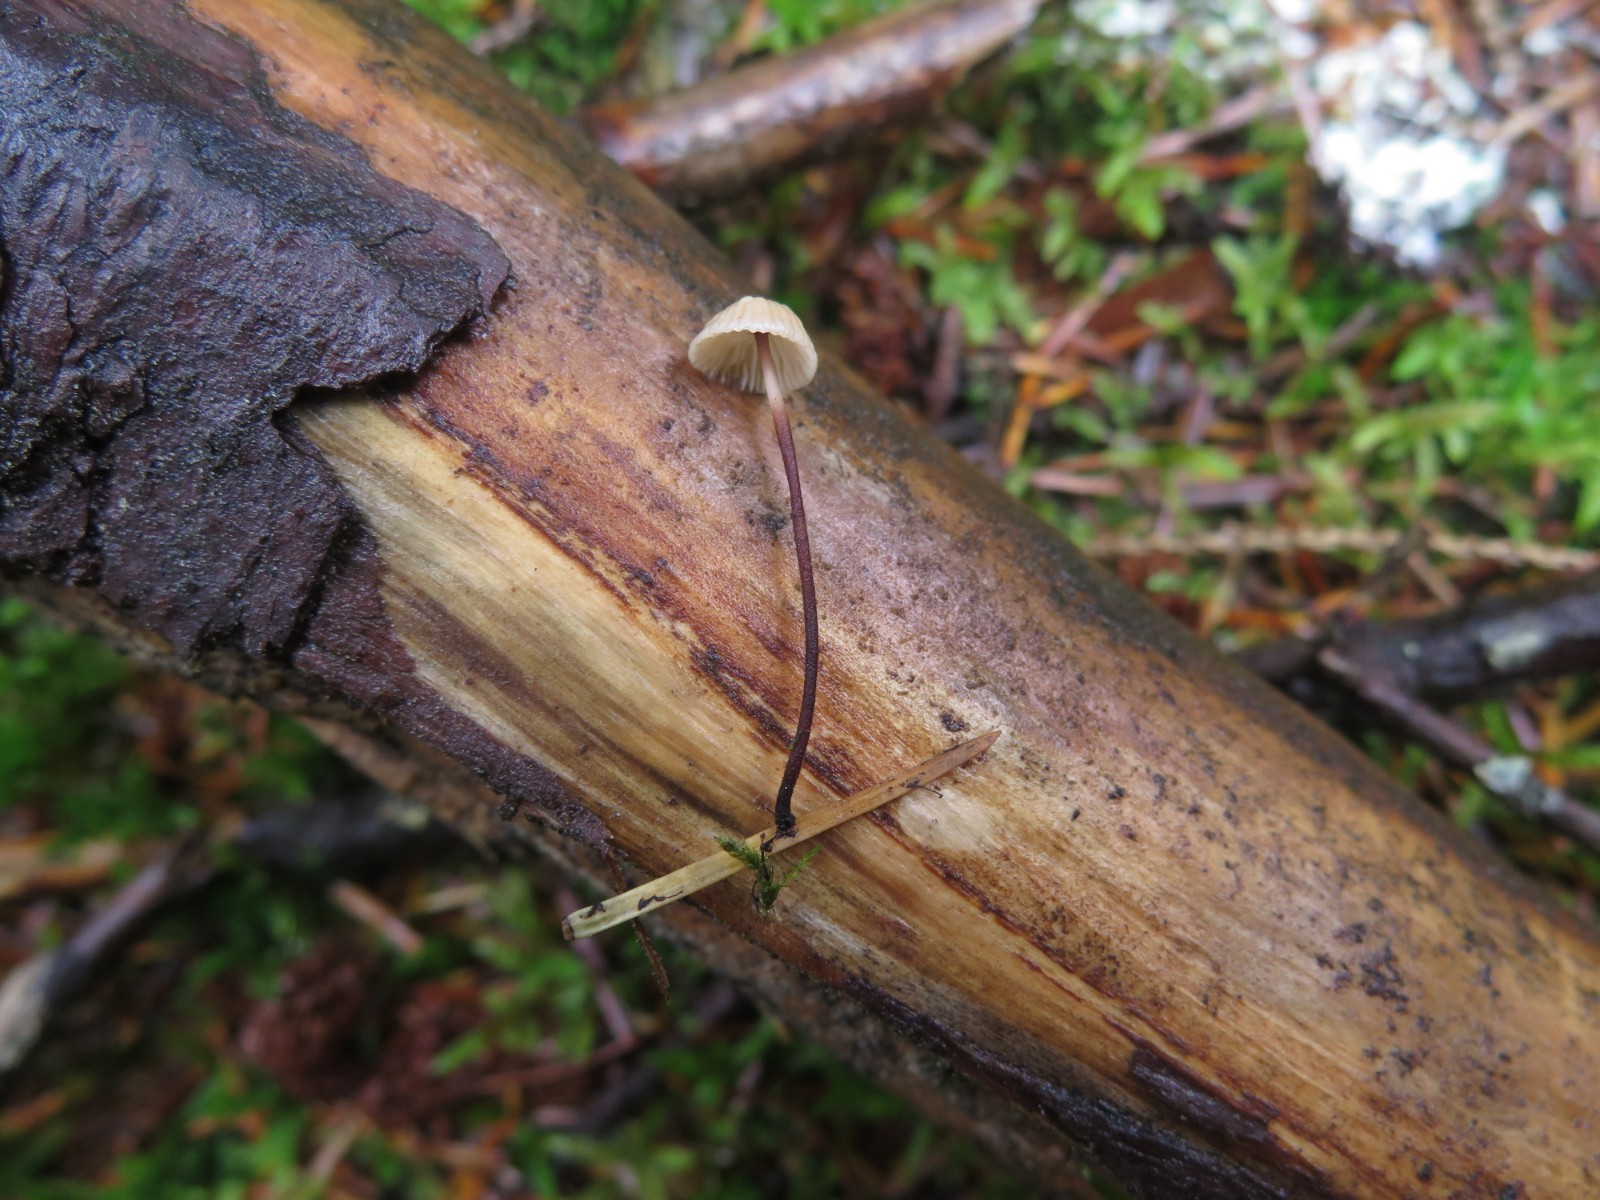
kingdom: Fungi
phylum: Basidiomycota
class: Agaricomycetes
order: Agaricales
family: Omphalotaceae
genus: Paragymnopus
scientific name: Paragymnopus perforans
